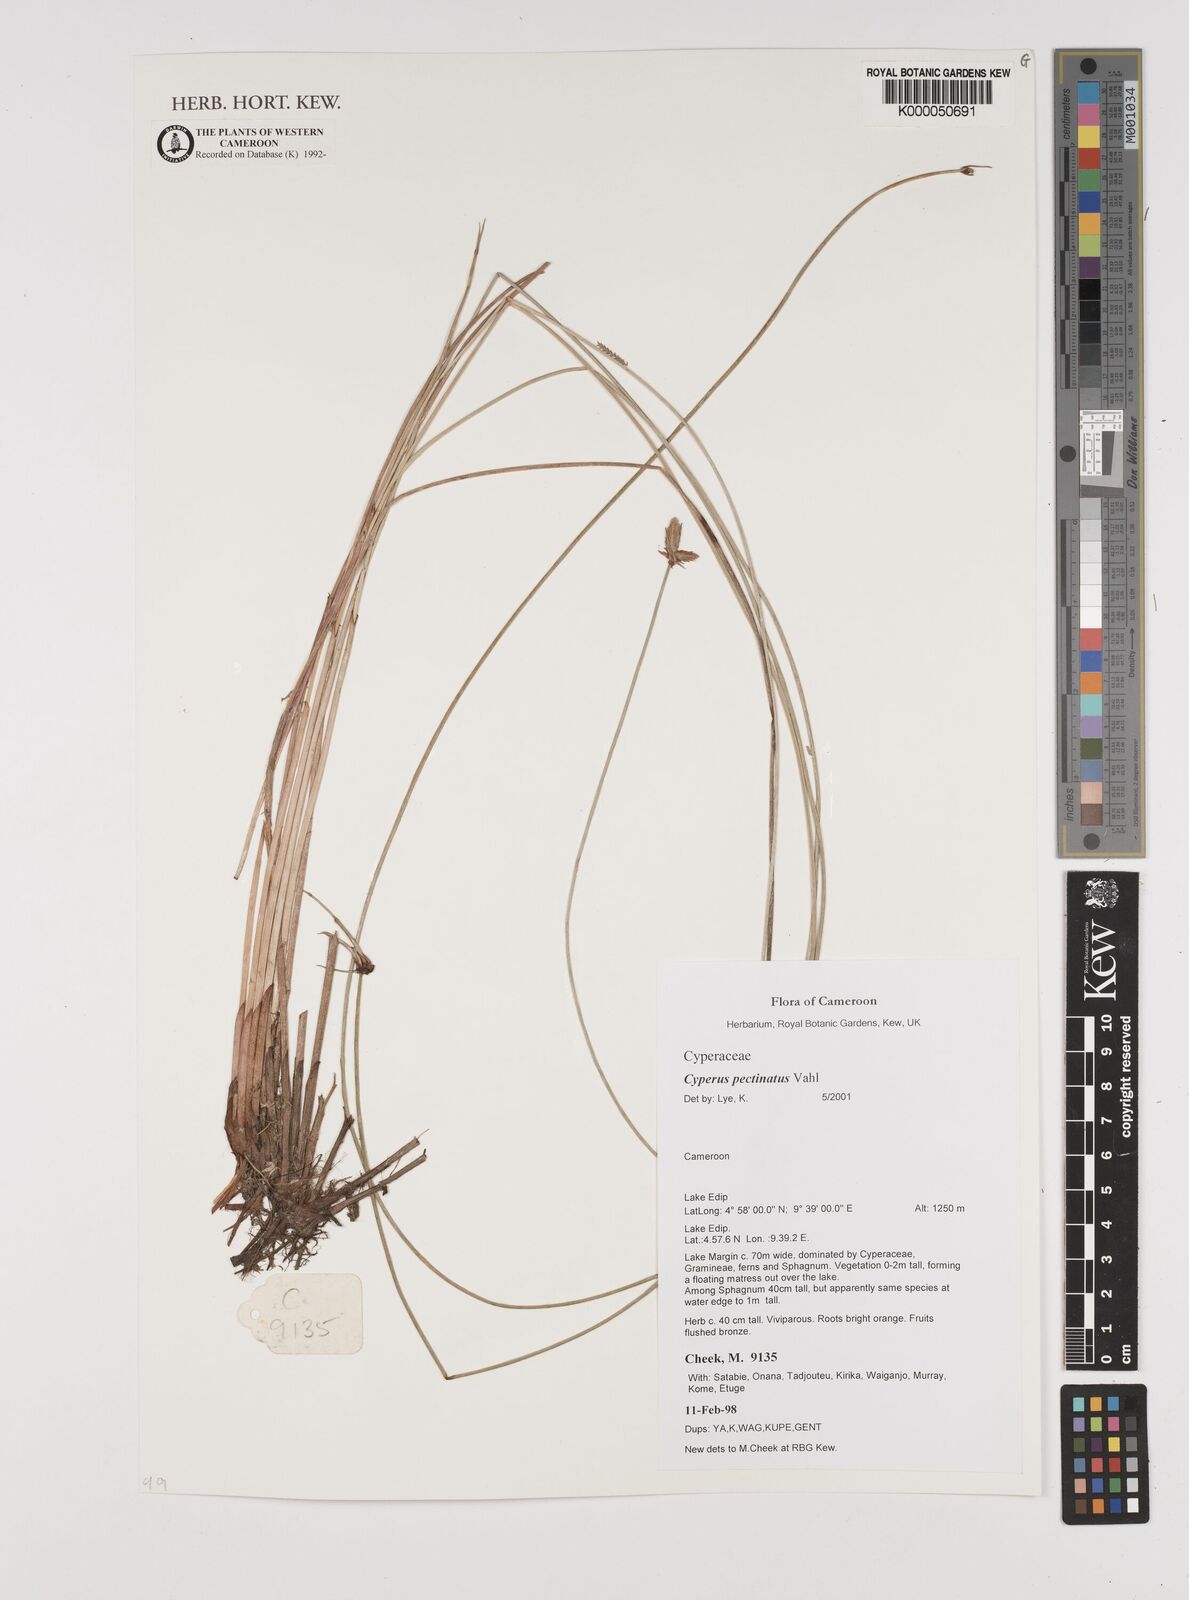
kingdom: Plantae
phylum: Tracheophyta
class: Liliopsida
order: Poales
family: Cyperaceae
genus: Cyperus
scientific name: Cyperus pectinatus
